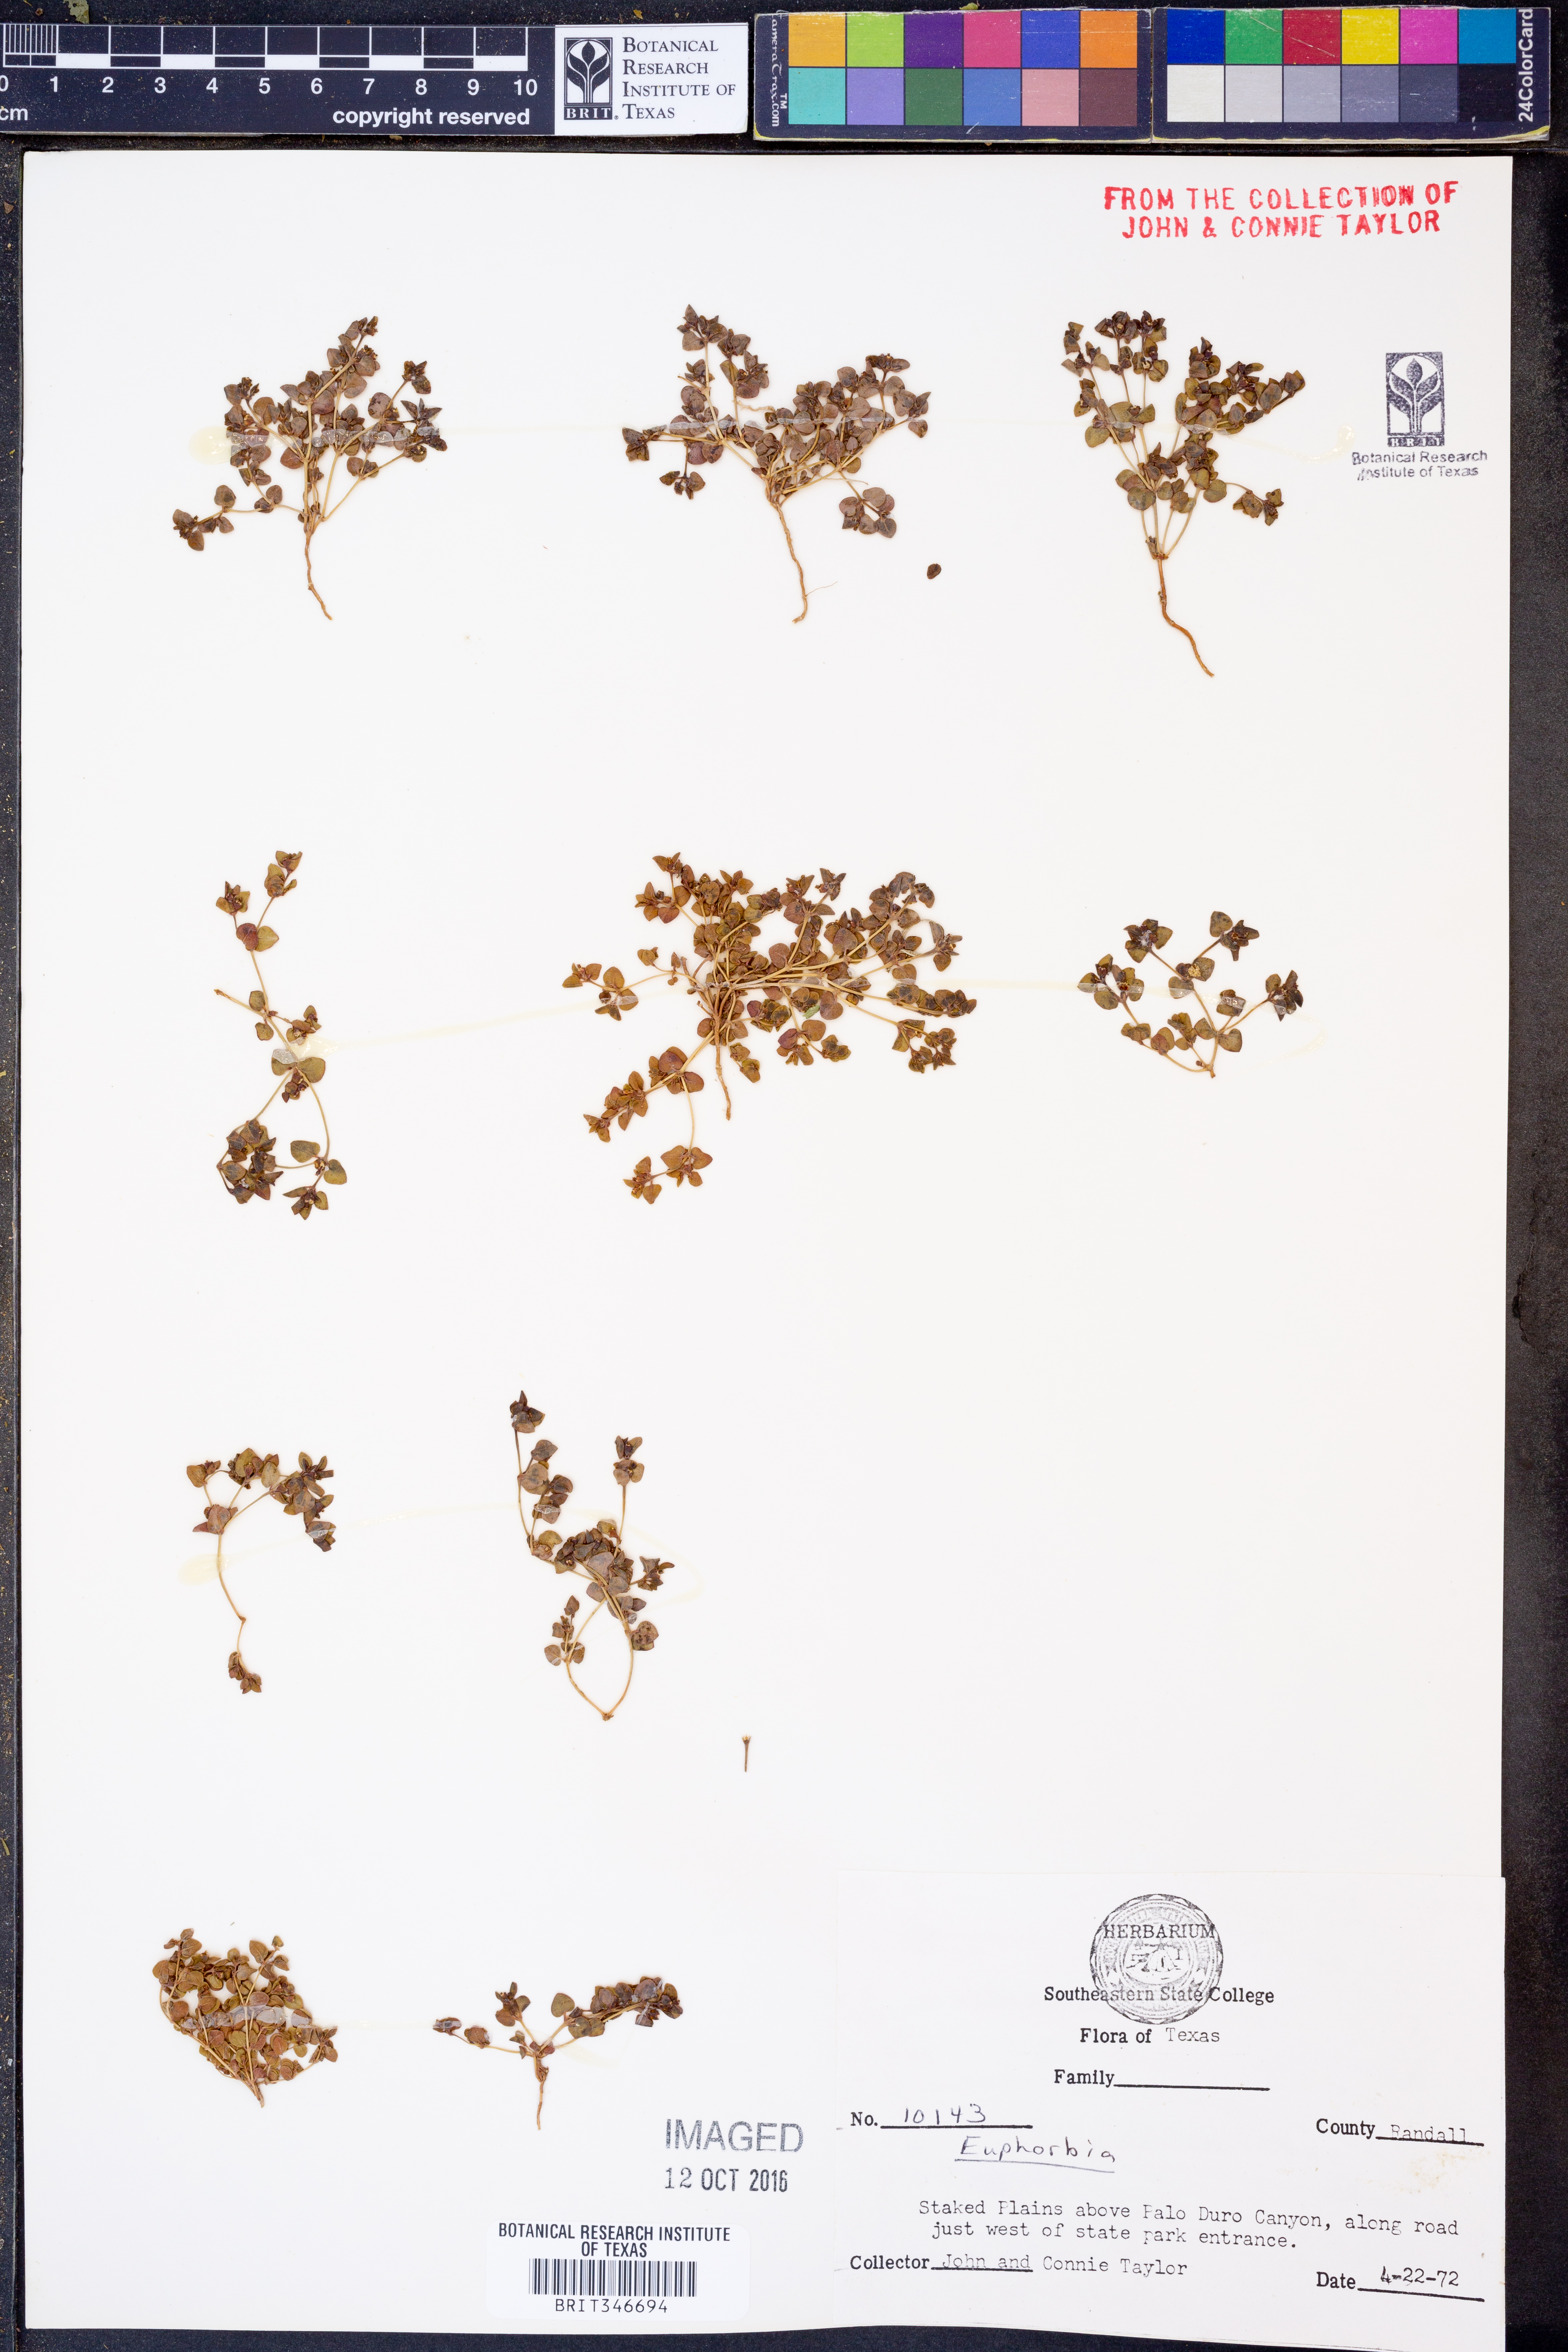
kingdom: Plantae
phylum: Tracheophyta
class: Magnoliopsida
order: Malpighiales
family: Euphorbiaceae
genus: Euphorbia
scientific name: Euphorbia
